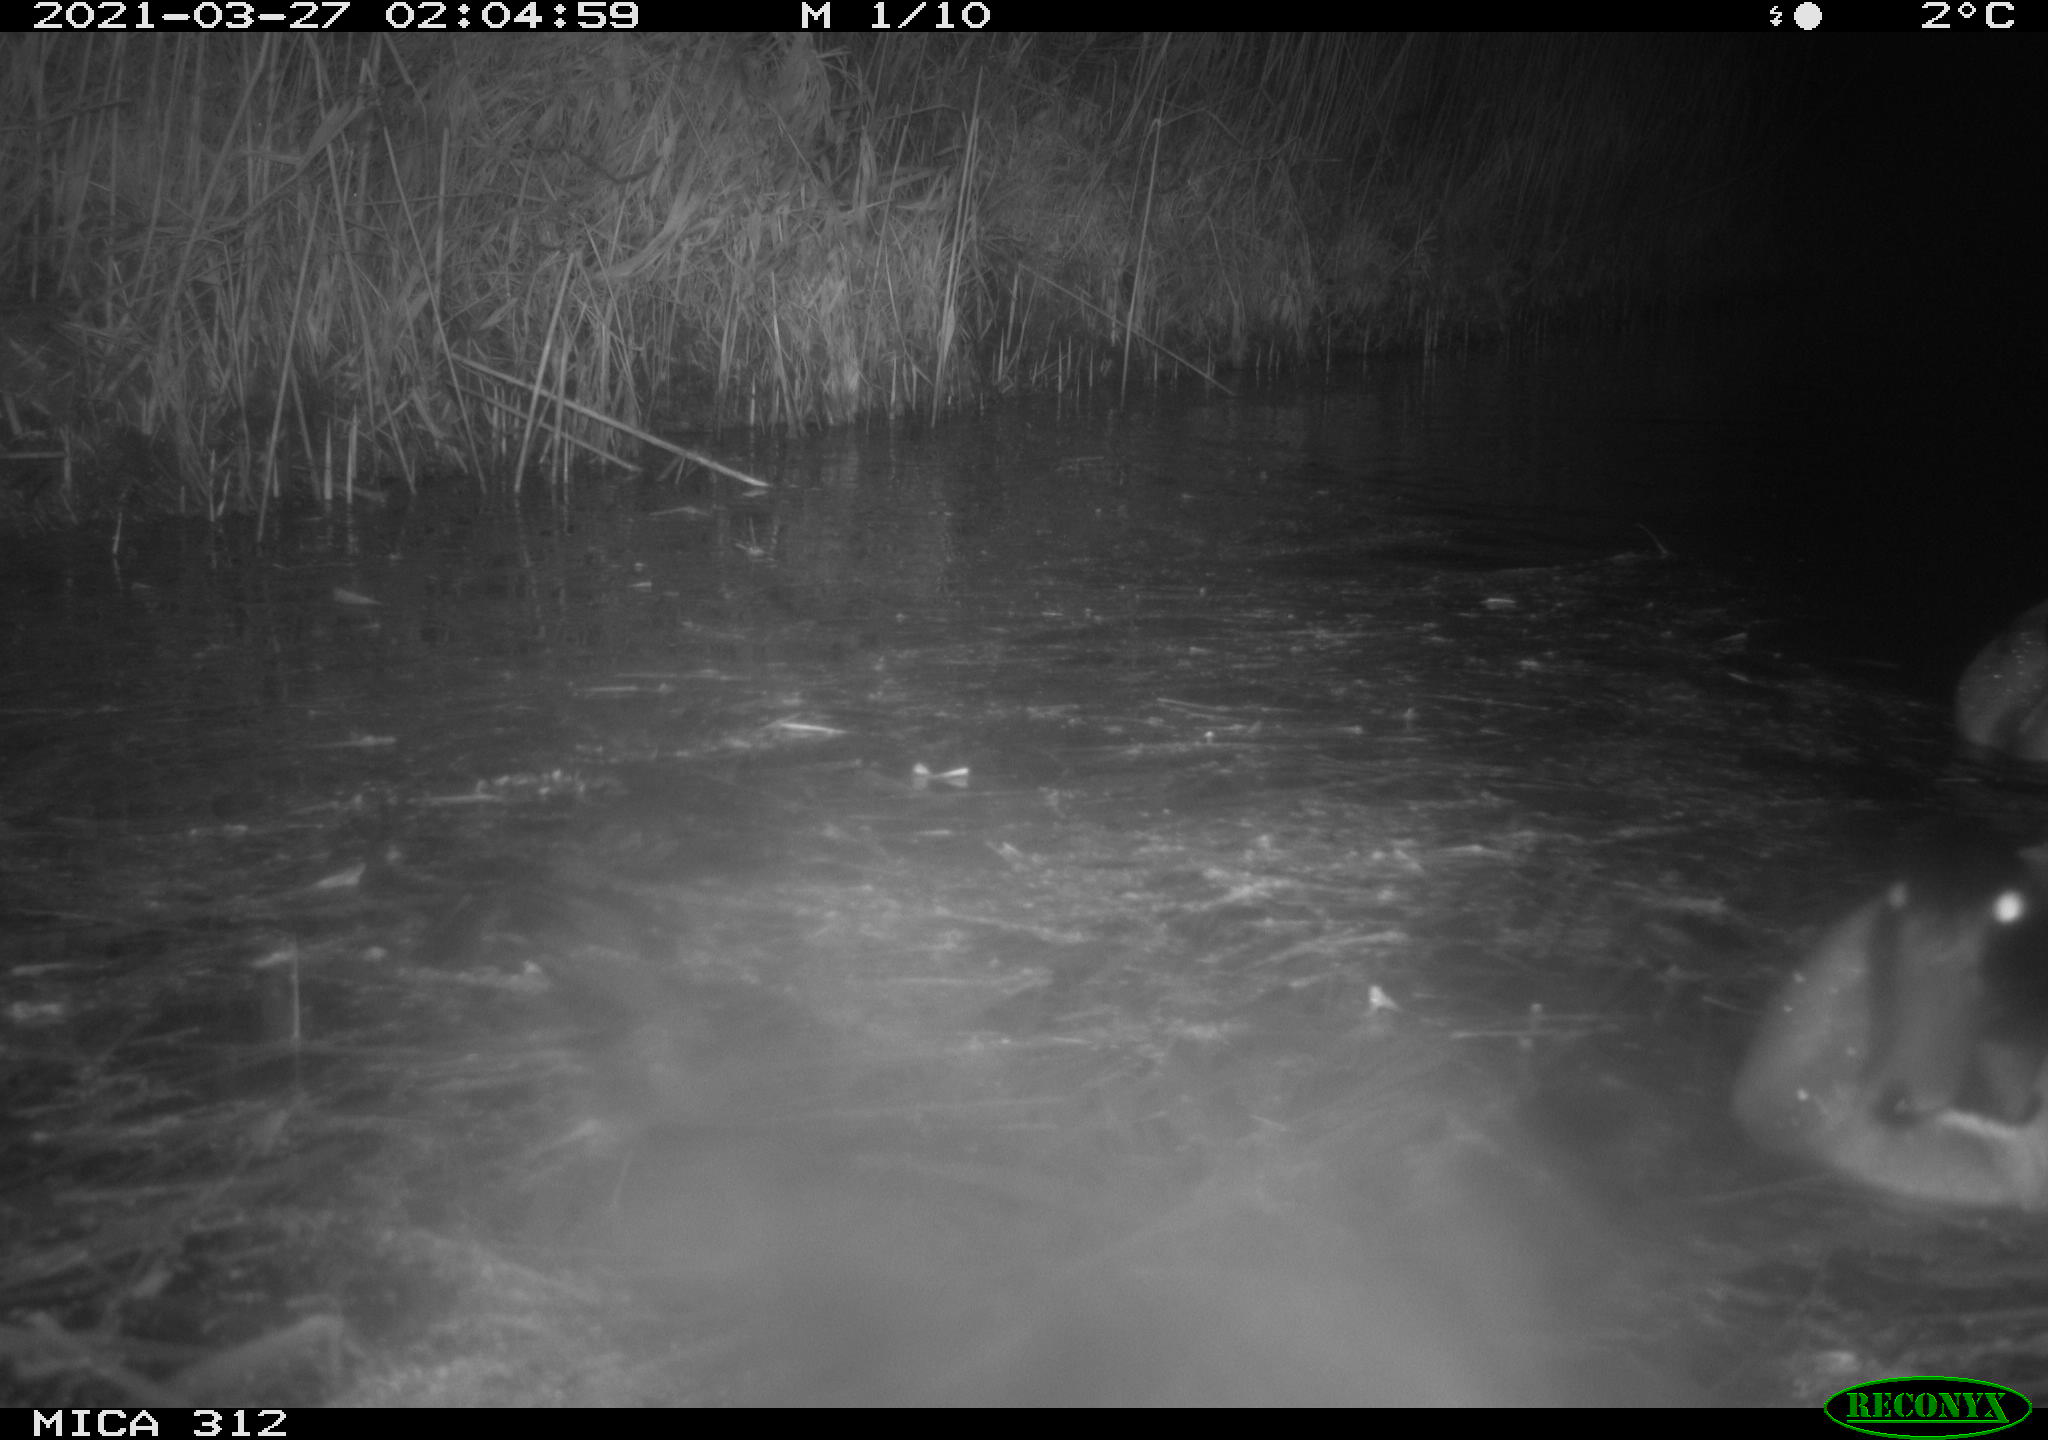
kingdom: Animalia
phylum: Chordata
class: Aves
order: Anseriformes
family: Anatidae
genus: Anas
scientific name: Anas platyrhynchos
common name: Mallard
